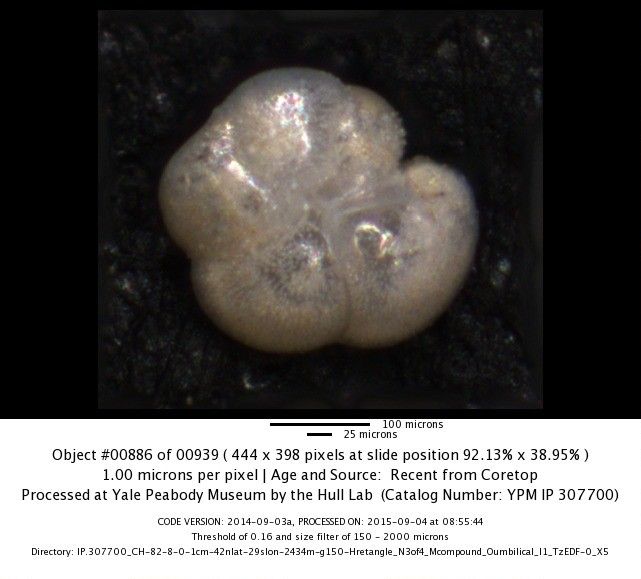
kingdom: Chromista
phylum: Foraminifera
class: Globothalamea
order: Rotaliida
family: Globorotaliidae
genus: Globorotalia
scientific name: Globorotalia scitula
